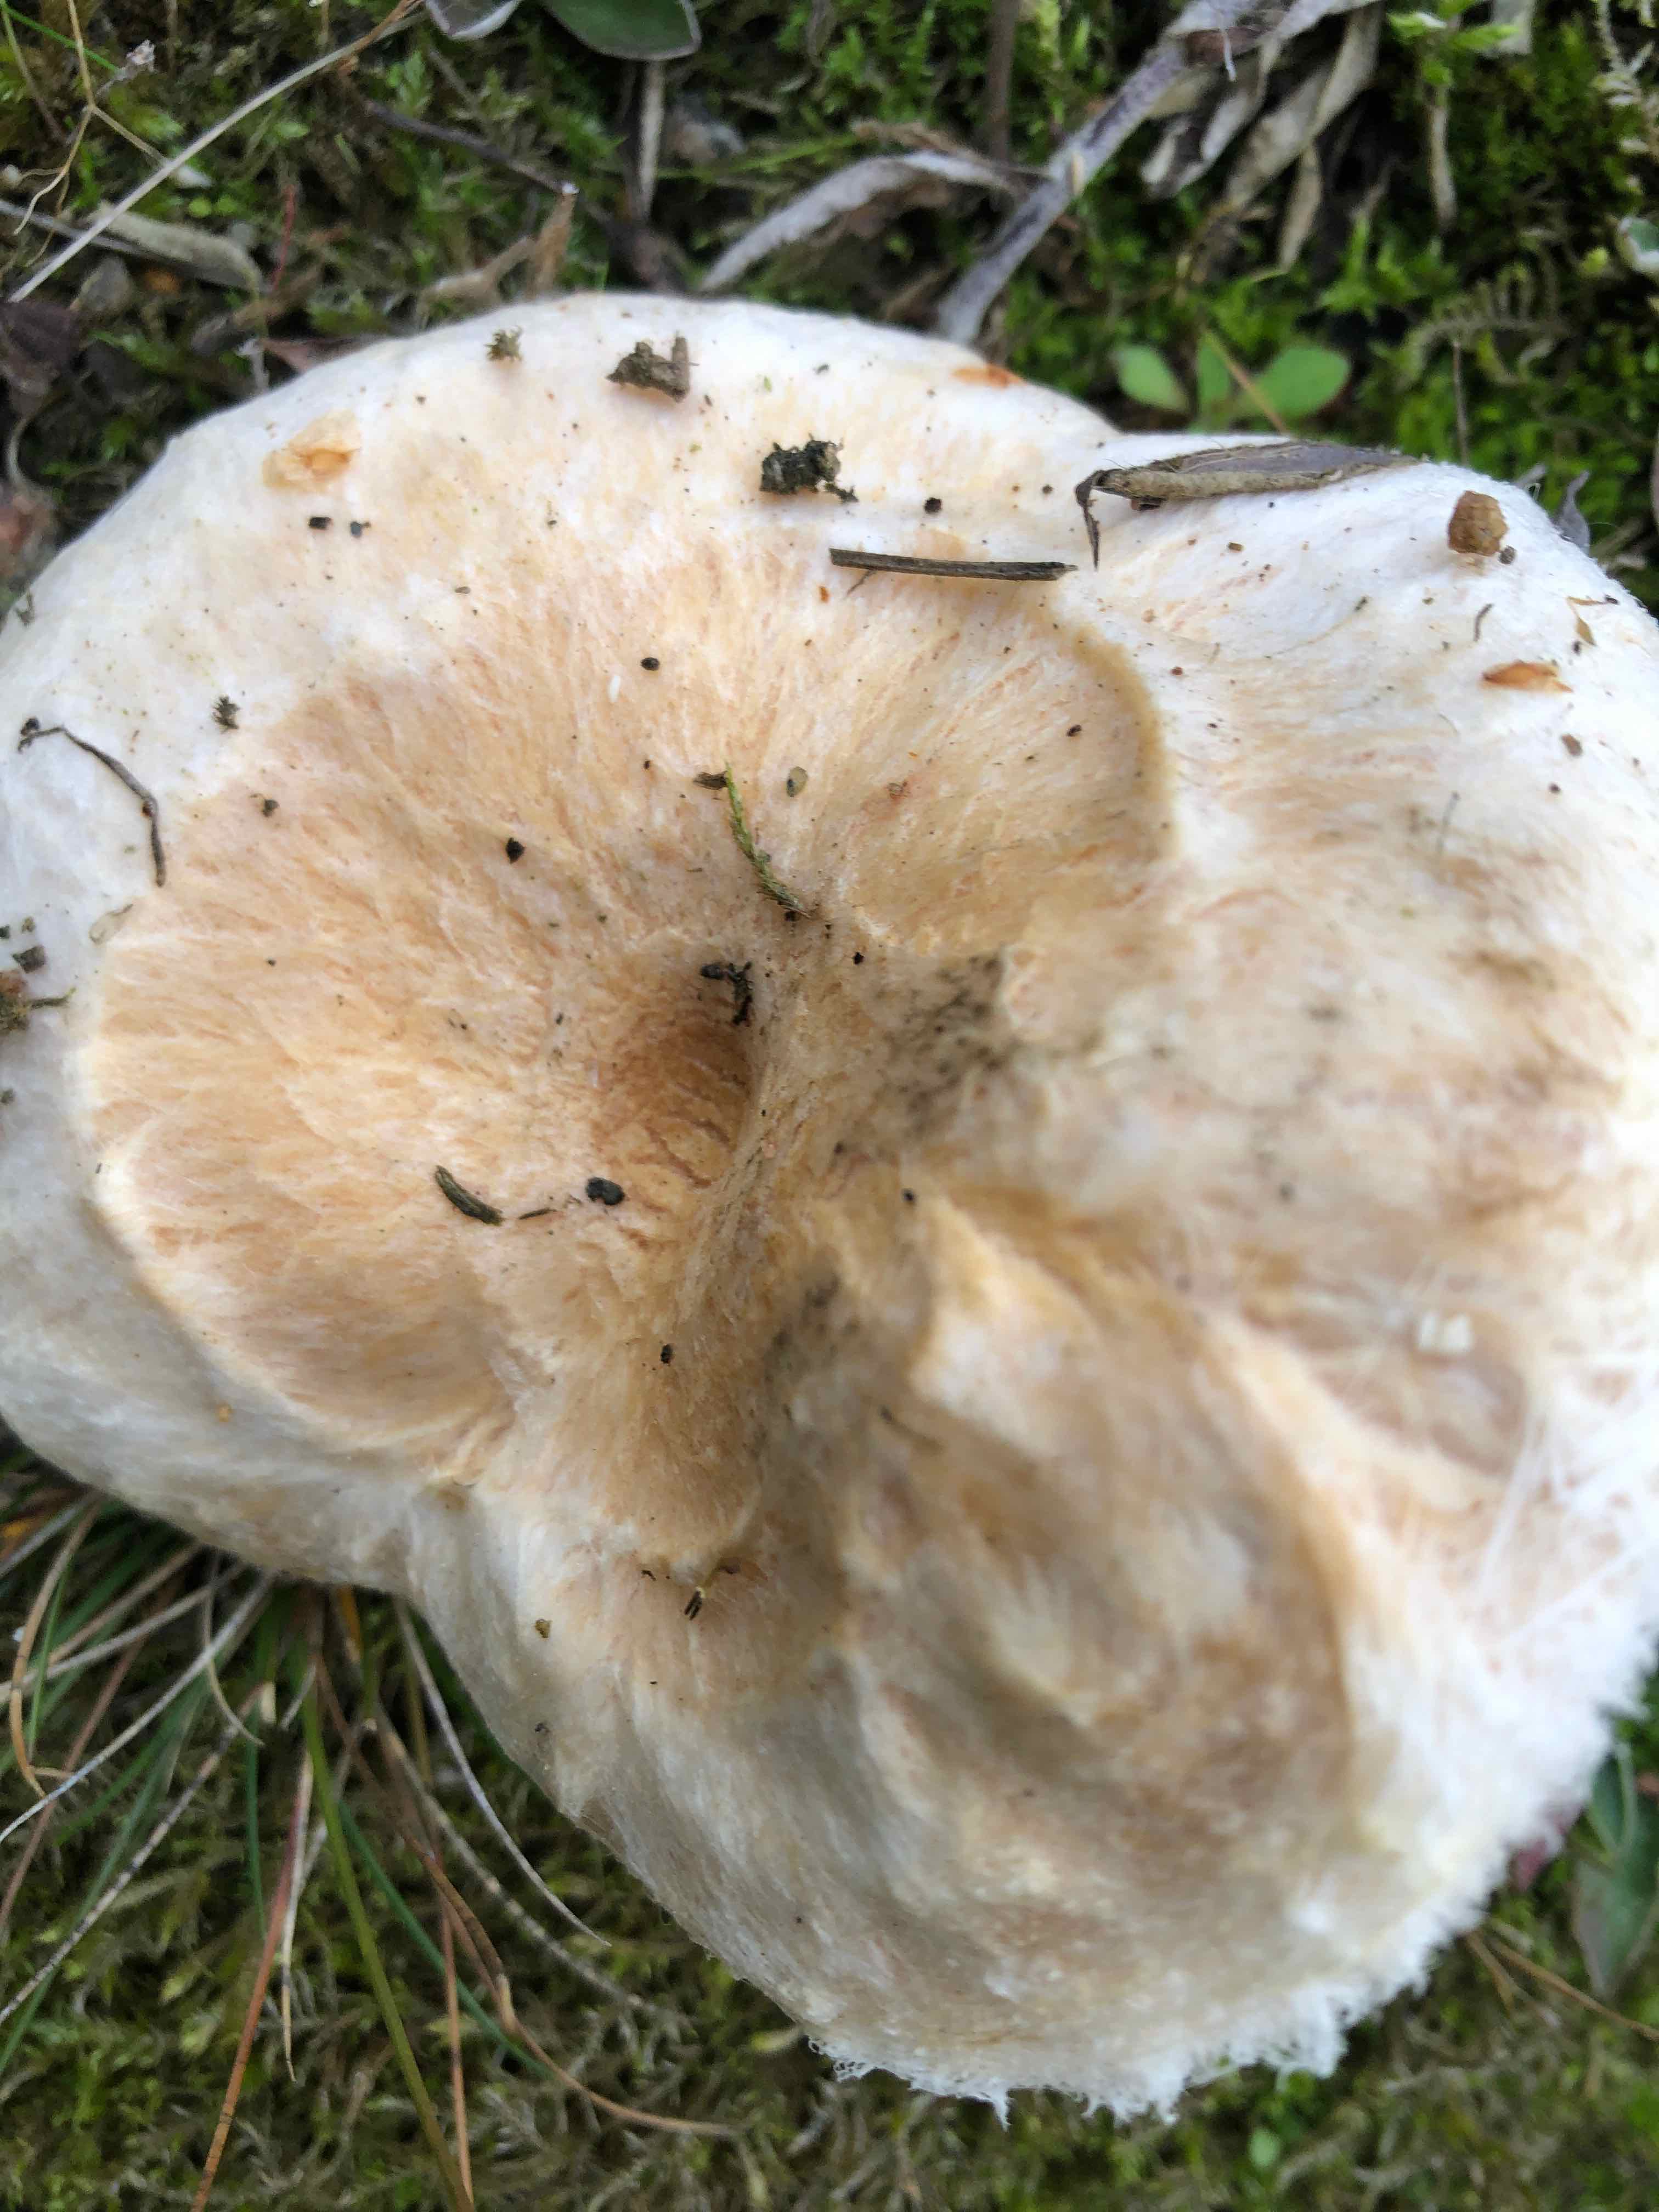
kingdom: Fungi
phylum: Basidiomycota
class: Agaricomycetes
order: Russulales
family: Russulaceae
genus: Lactarius
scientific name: Lactarius pubescens
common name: dunet mælkehat
